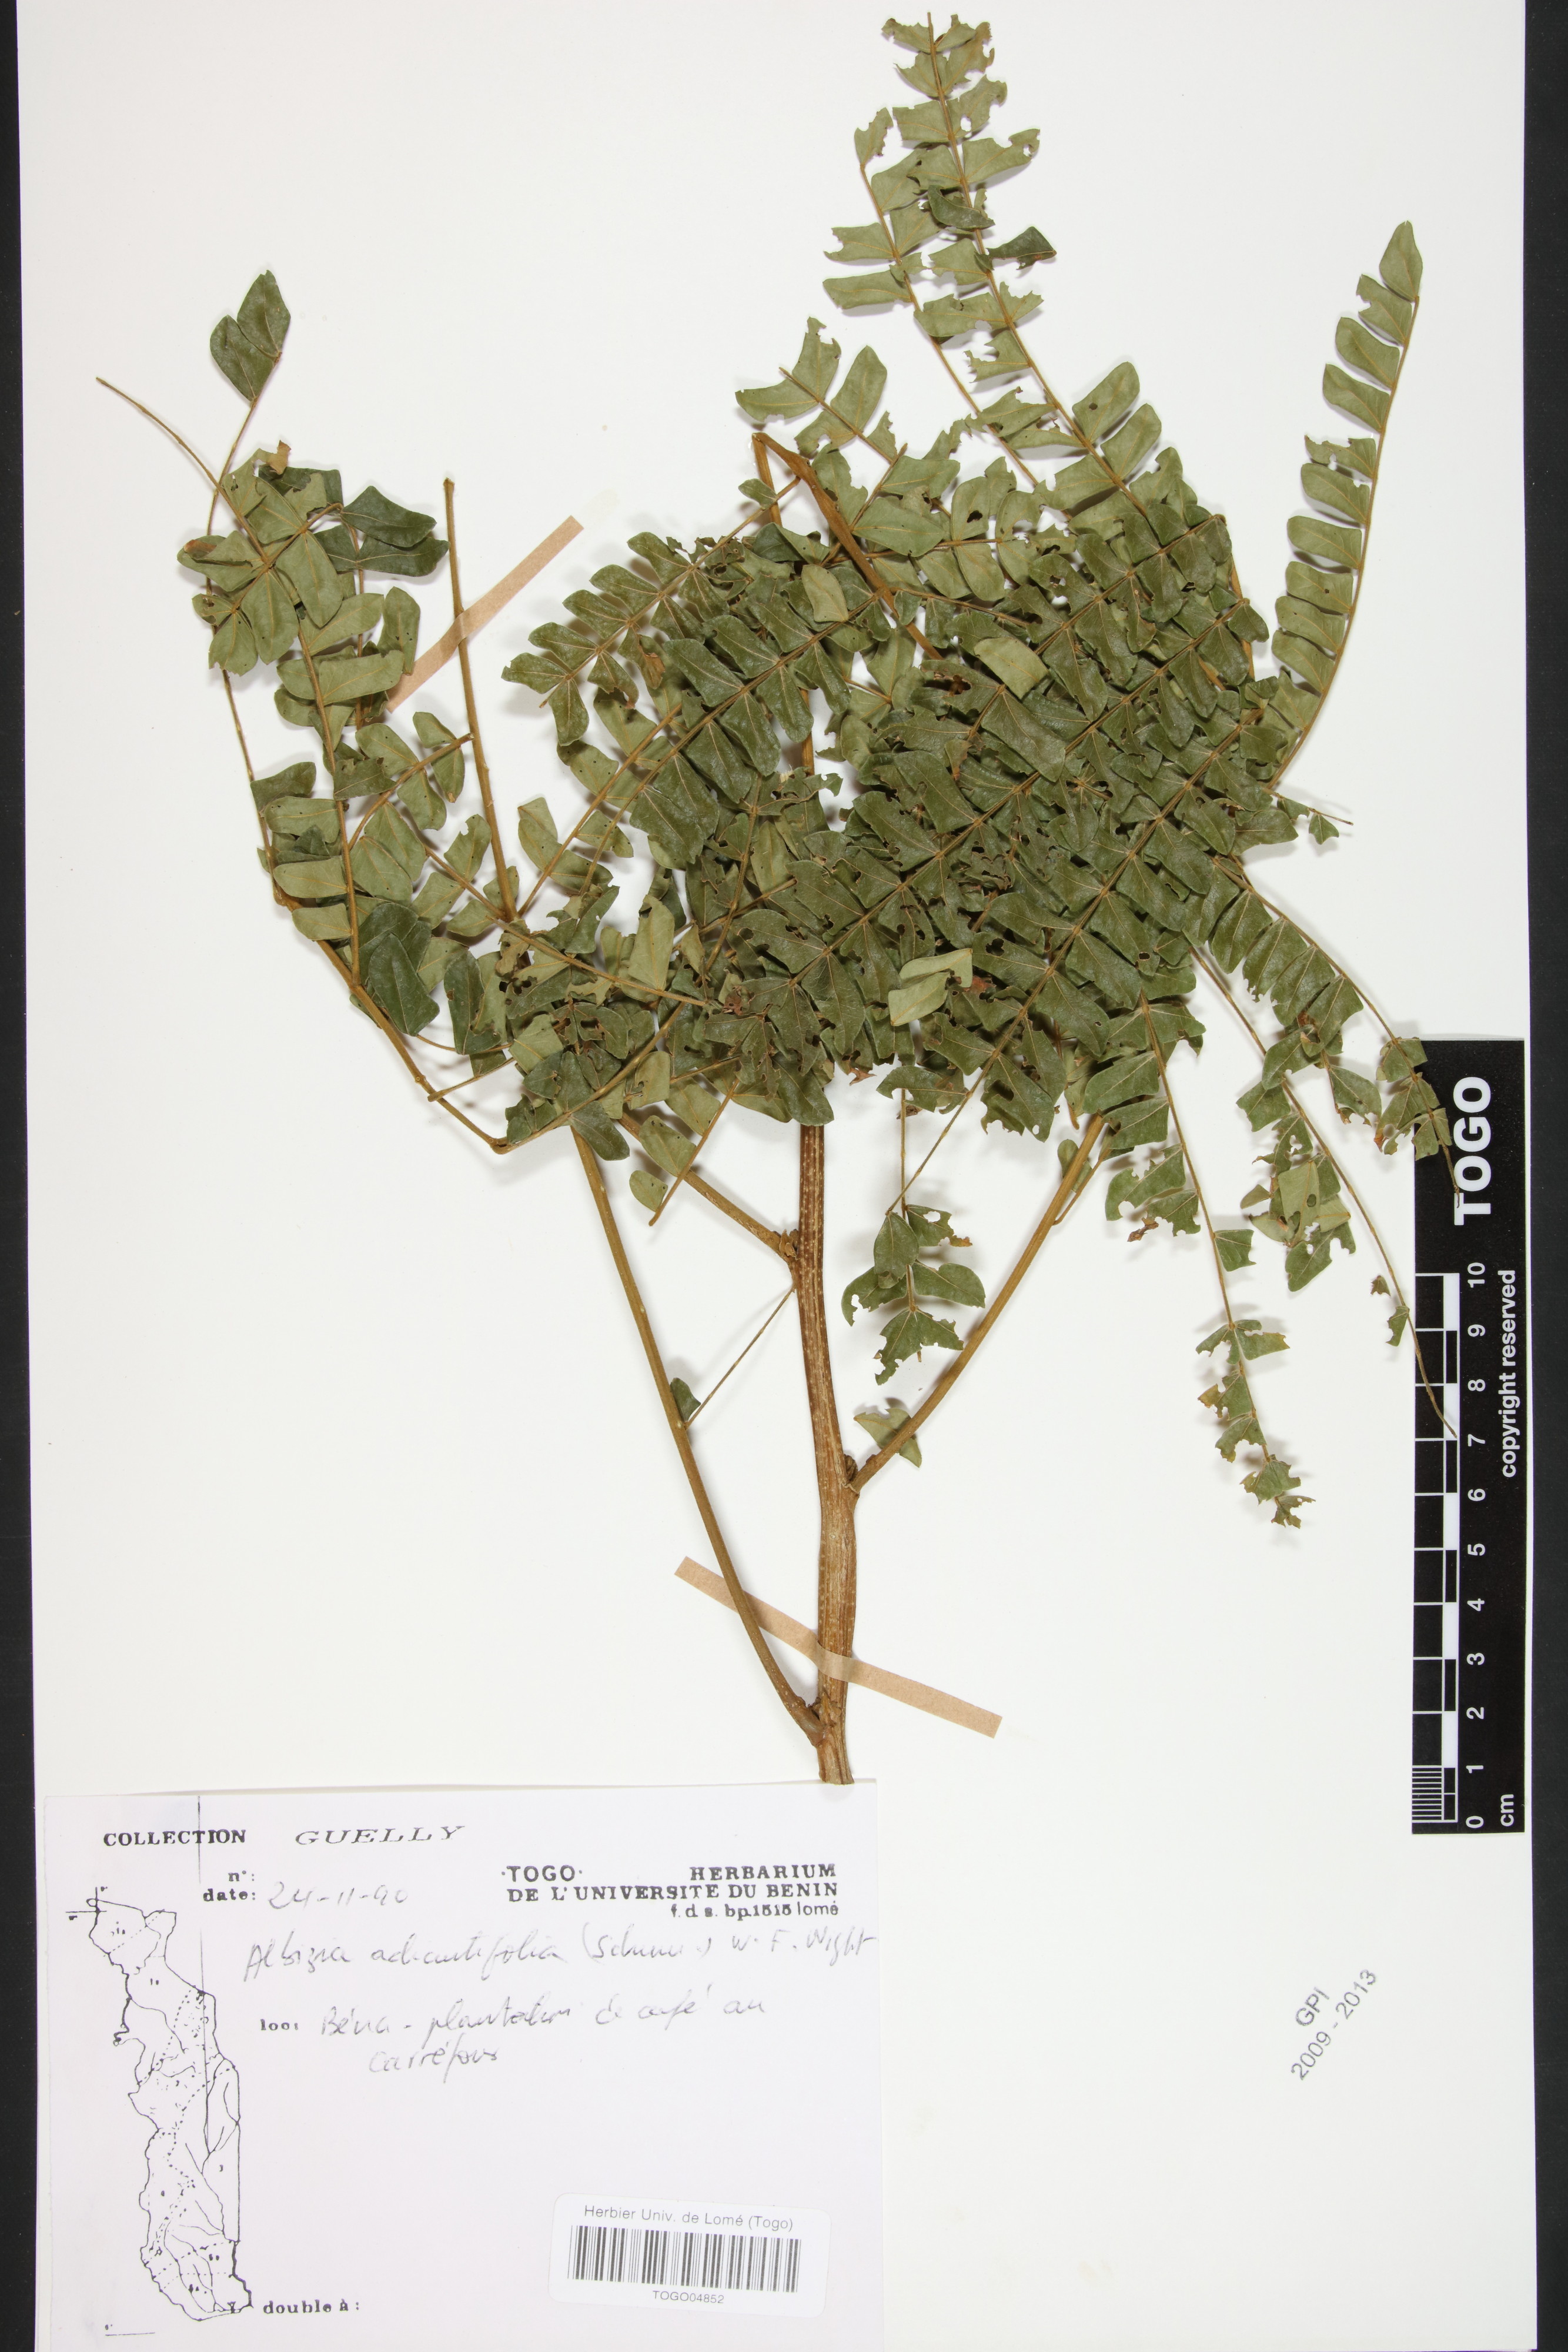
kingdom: Plantae
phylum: Tracheophyta
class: Magnoliopsida
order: Fabales
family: Fabaceae
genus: Albizia
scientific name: Albizia adianthifolia
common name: West african albizia
